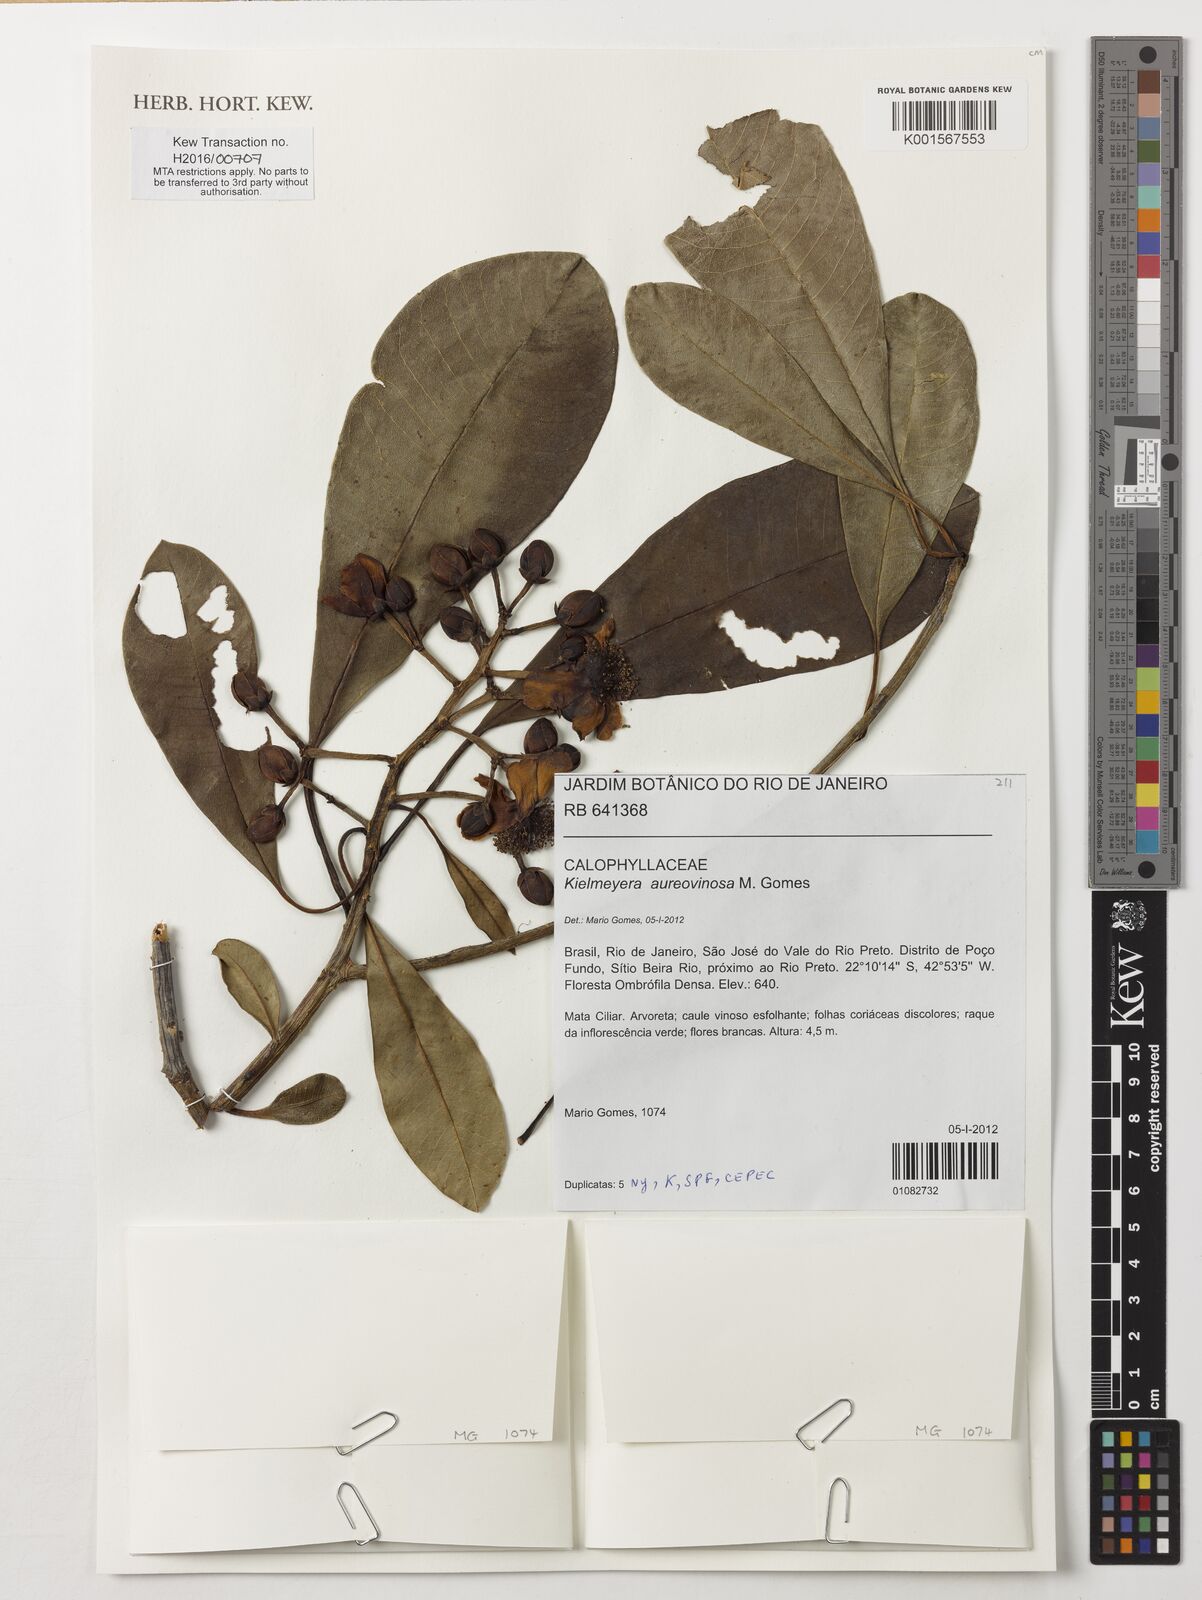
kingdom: Plantae
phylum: Tracheophyta
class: Magnoliopsida
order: Malpighiales
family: Calophyllaceae
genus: Kielmeyera
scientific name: Kielmeyera aureovinosa
